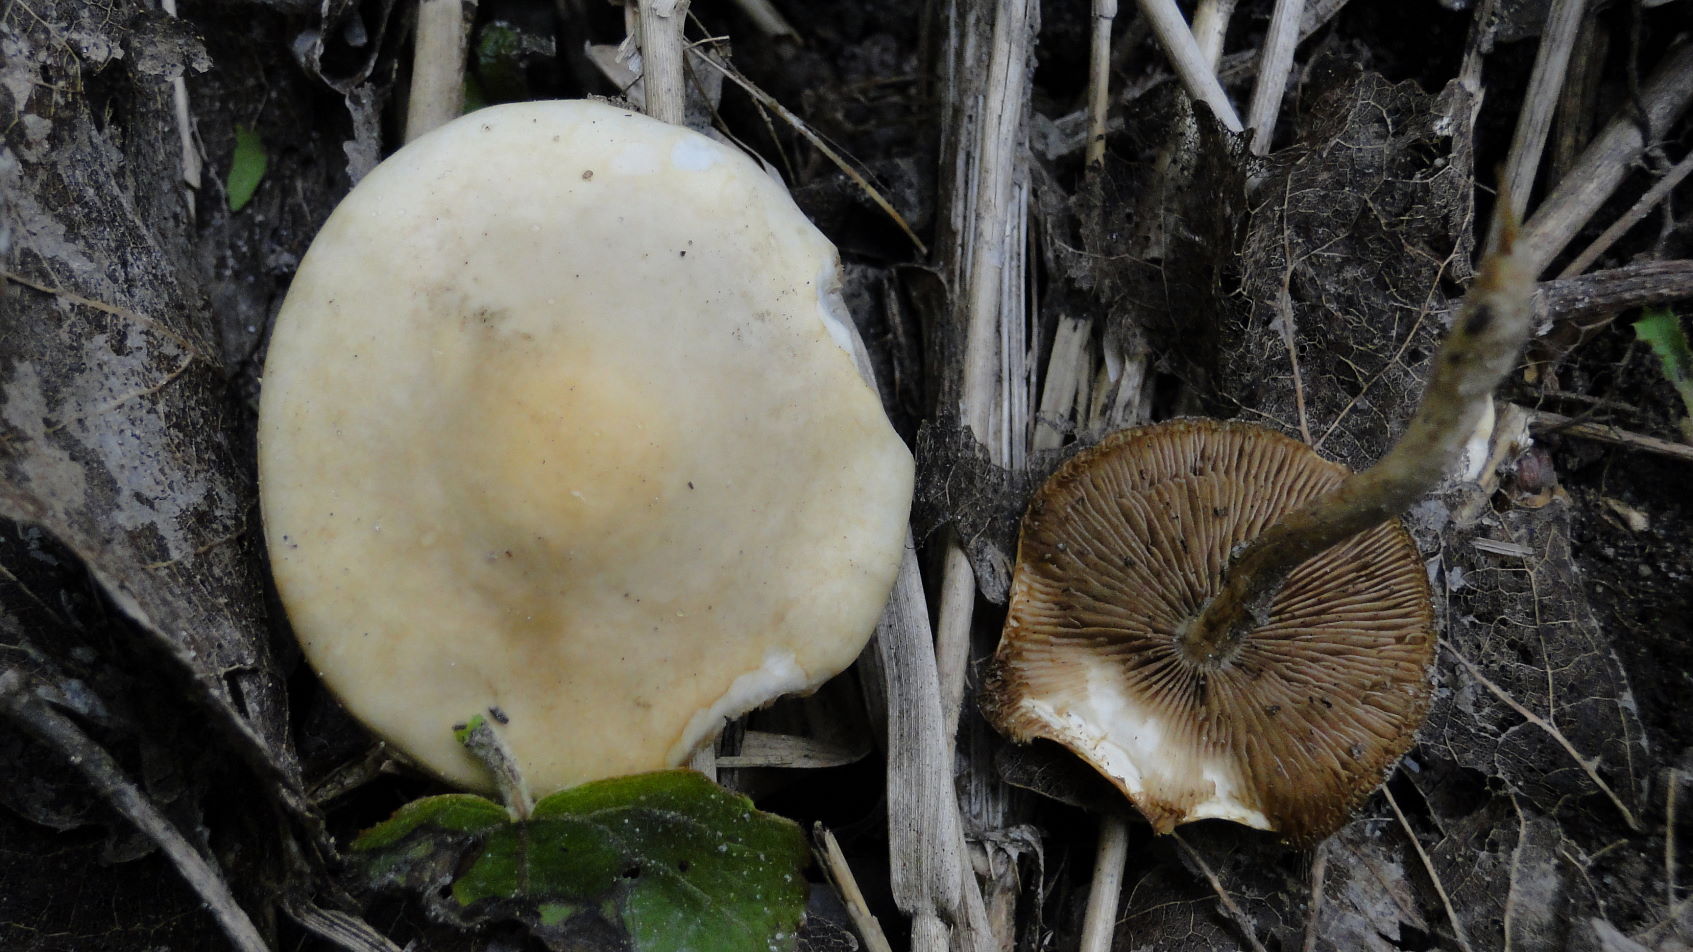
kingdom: Fungi
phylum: Basidiomycota
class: Agaricomycetes
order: Agaricales
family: Strophariaceae
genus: Agrocybe
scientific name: Agrocybe praecox
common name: tidlig agerhat
